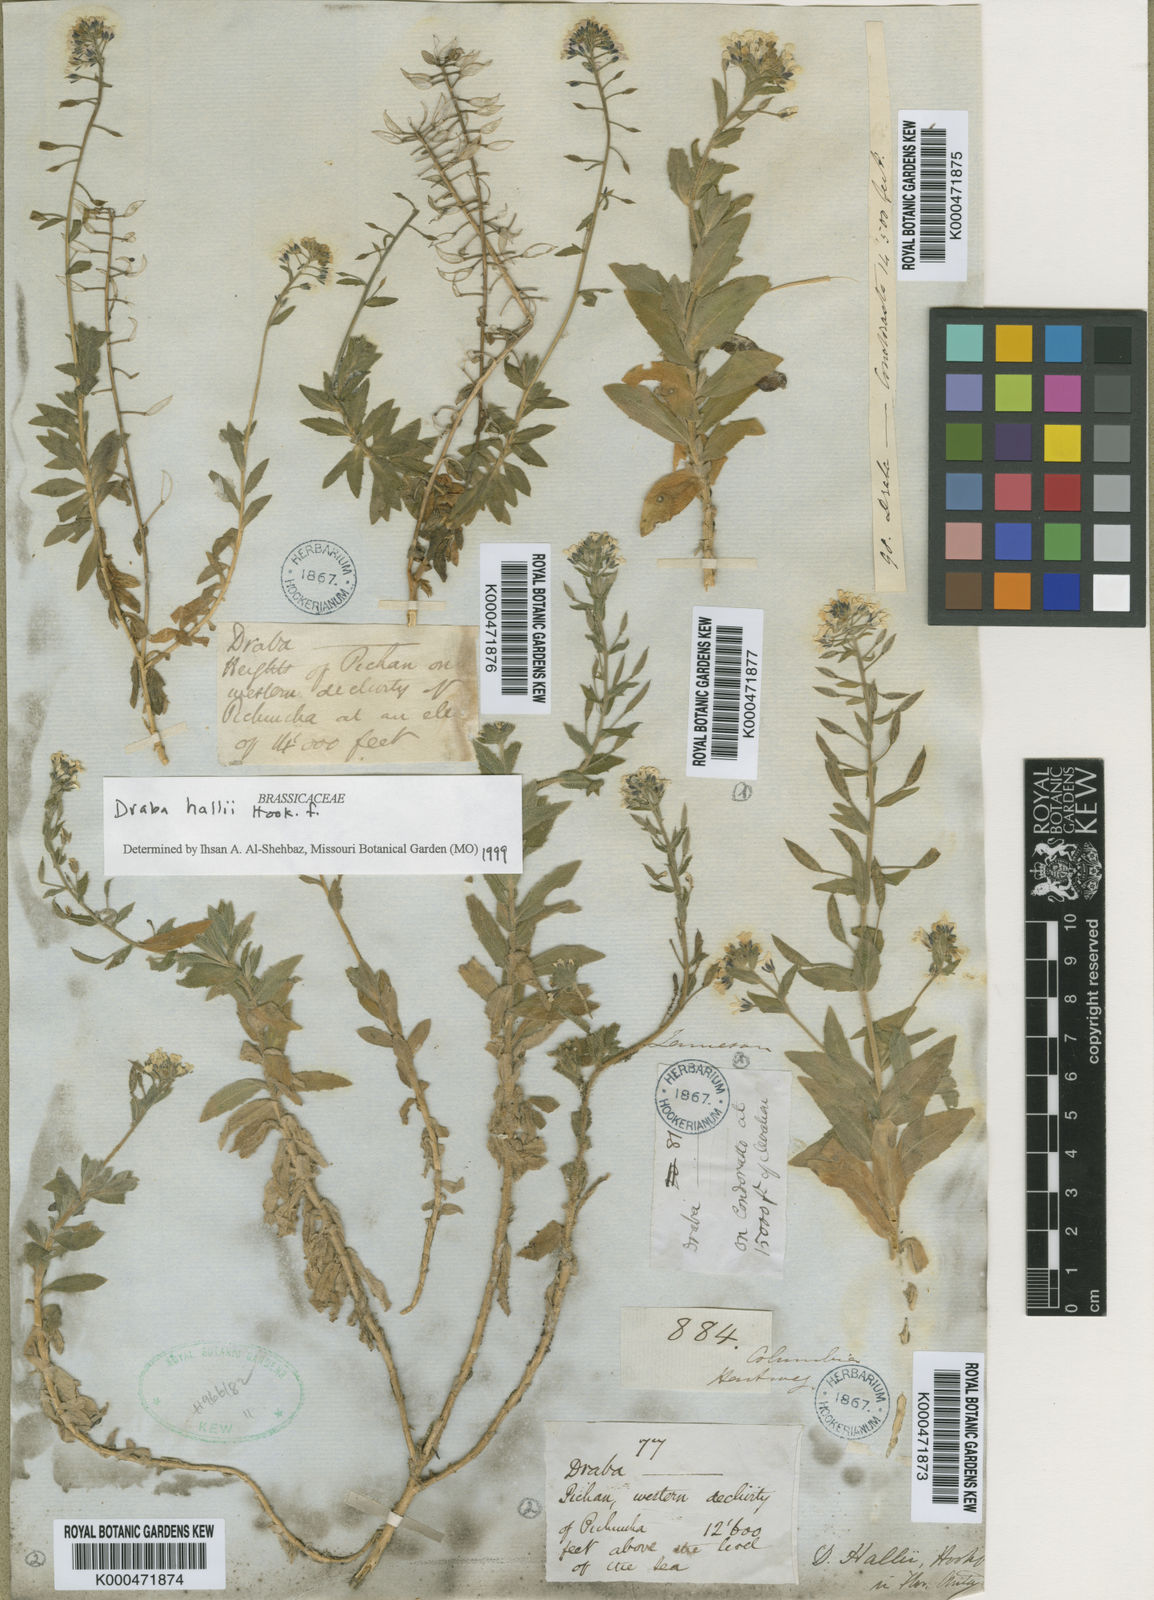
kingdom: Plantae
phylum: Tracheophyta
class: Magnoliopsida
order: Brassicales
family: Brassicaceae
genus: Draba
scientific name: Draba hallii
